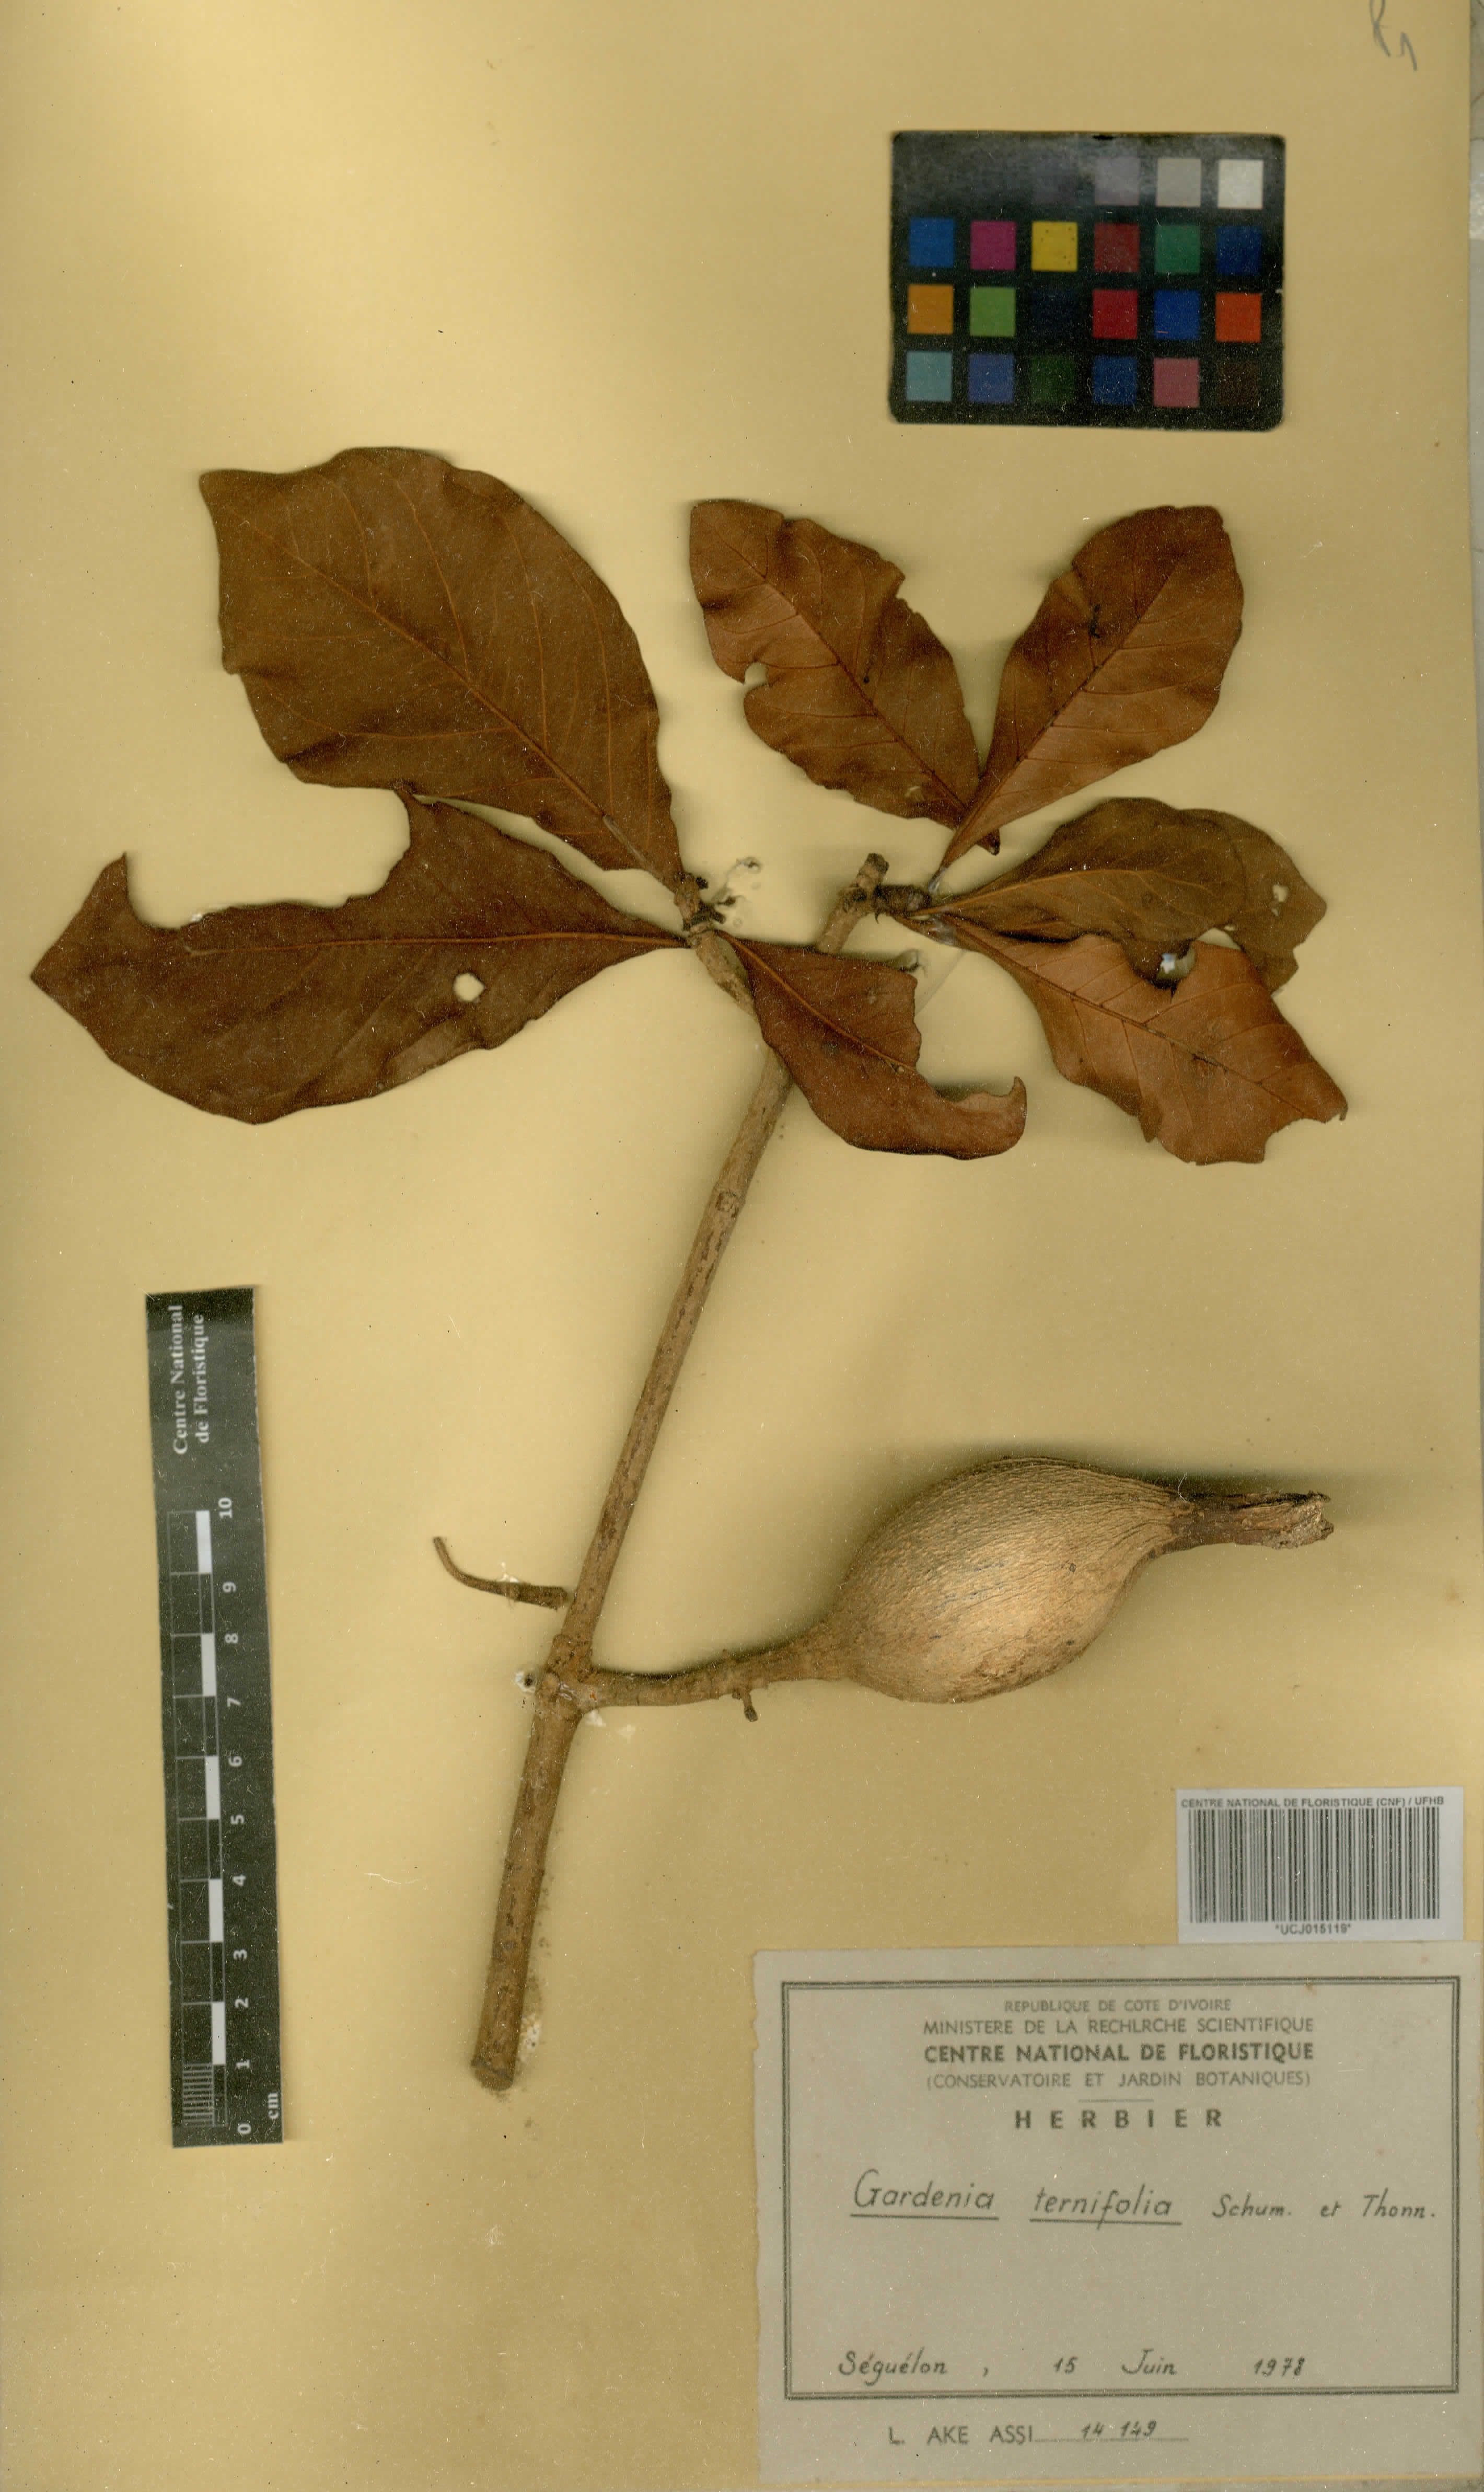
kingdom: Plantae
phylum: Tracheophyta
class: Magnoliopsida
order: Gentianales
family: Rubiaceae
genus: Gardenia
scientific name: Gardenia ternifolia
